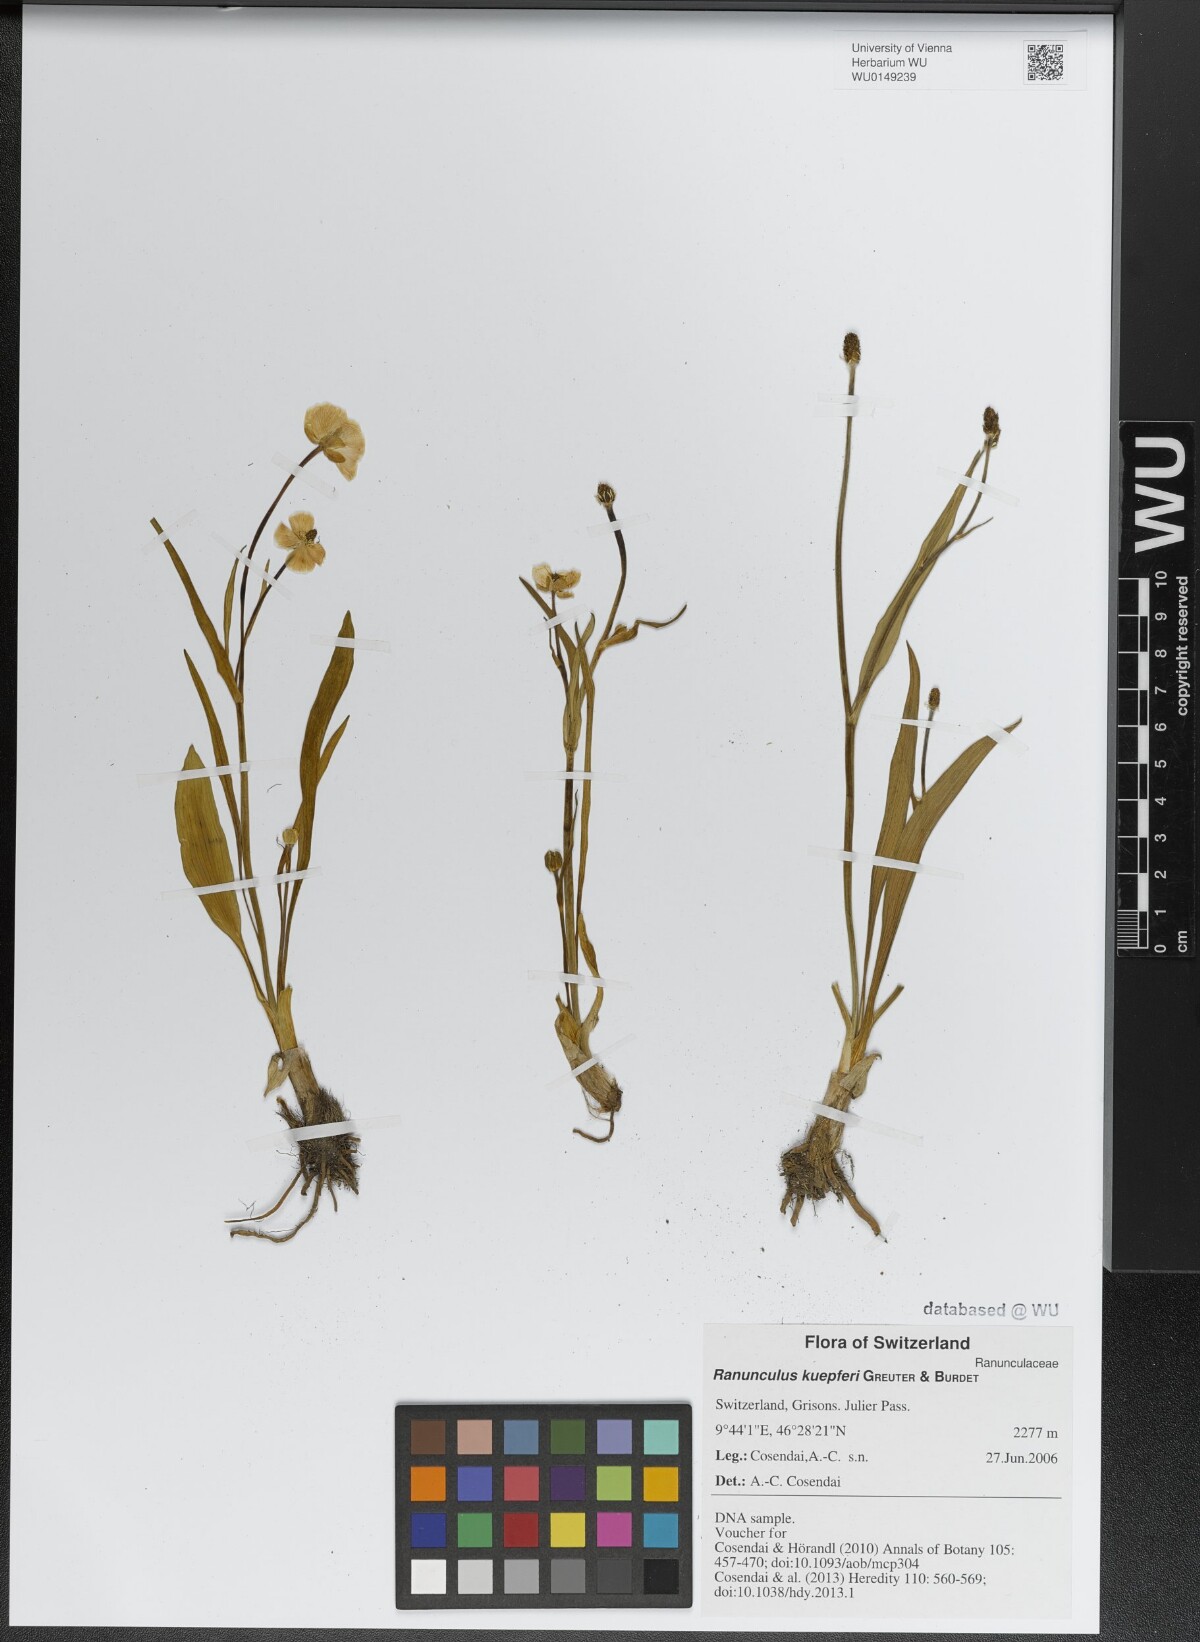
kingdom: Plantae
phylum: Tracheophyta
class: Magnoliopsida
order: Ranunculales
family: Ranunculaceae
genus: Ranunculus
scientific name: Ranunculus kuepferi
